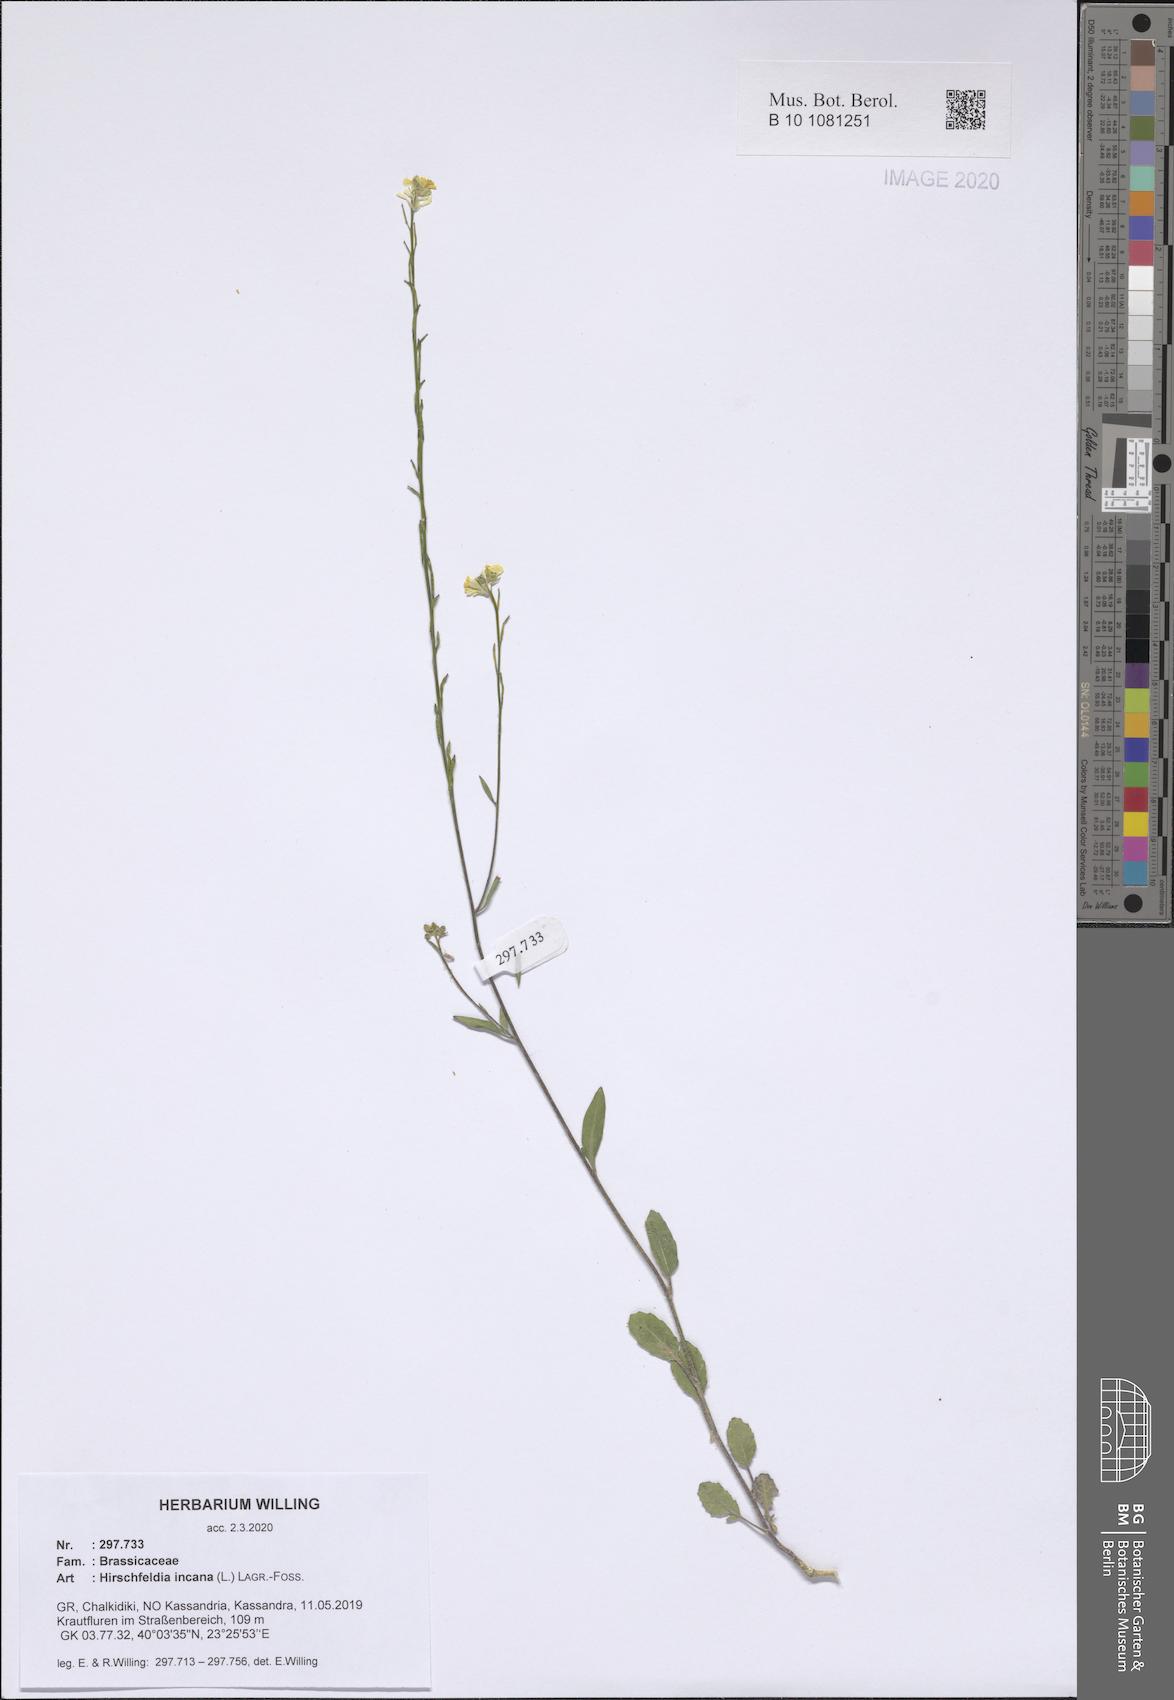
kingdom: Plantae
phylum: Tracheophyta
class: Magnoliopsida
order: Brassicales
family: Brassicaceae
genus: Hirschfeldia
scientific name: Hirschfeldia incana
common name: Hoary mustard
